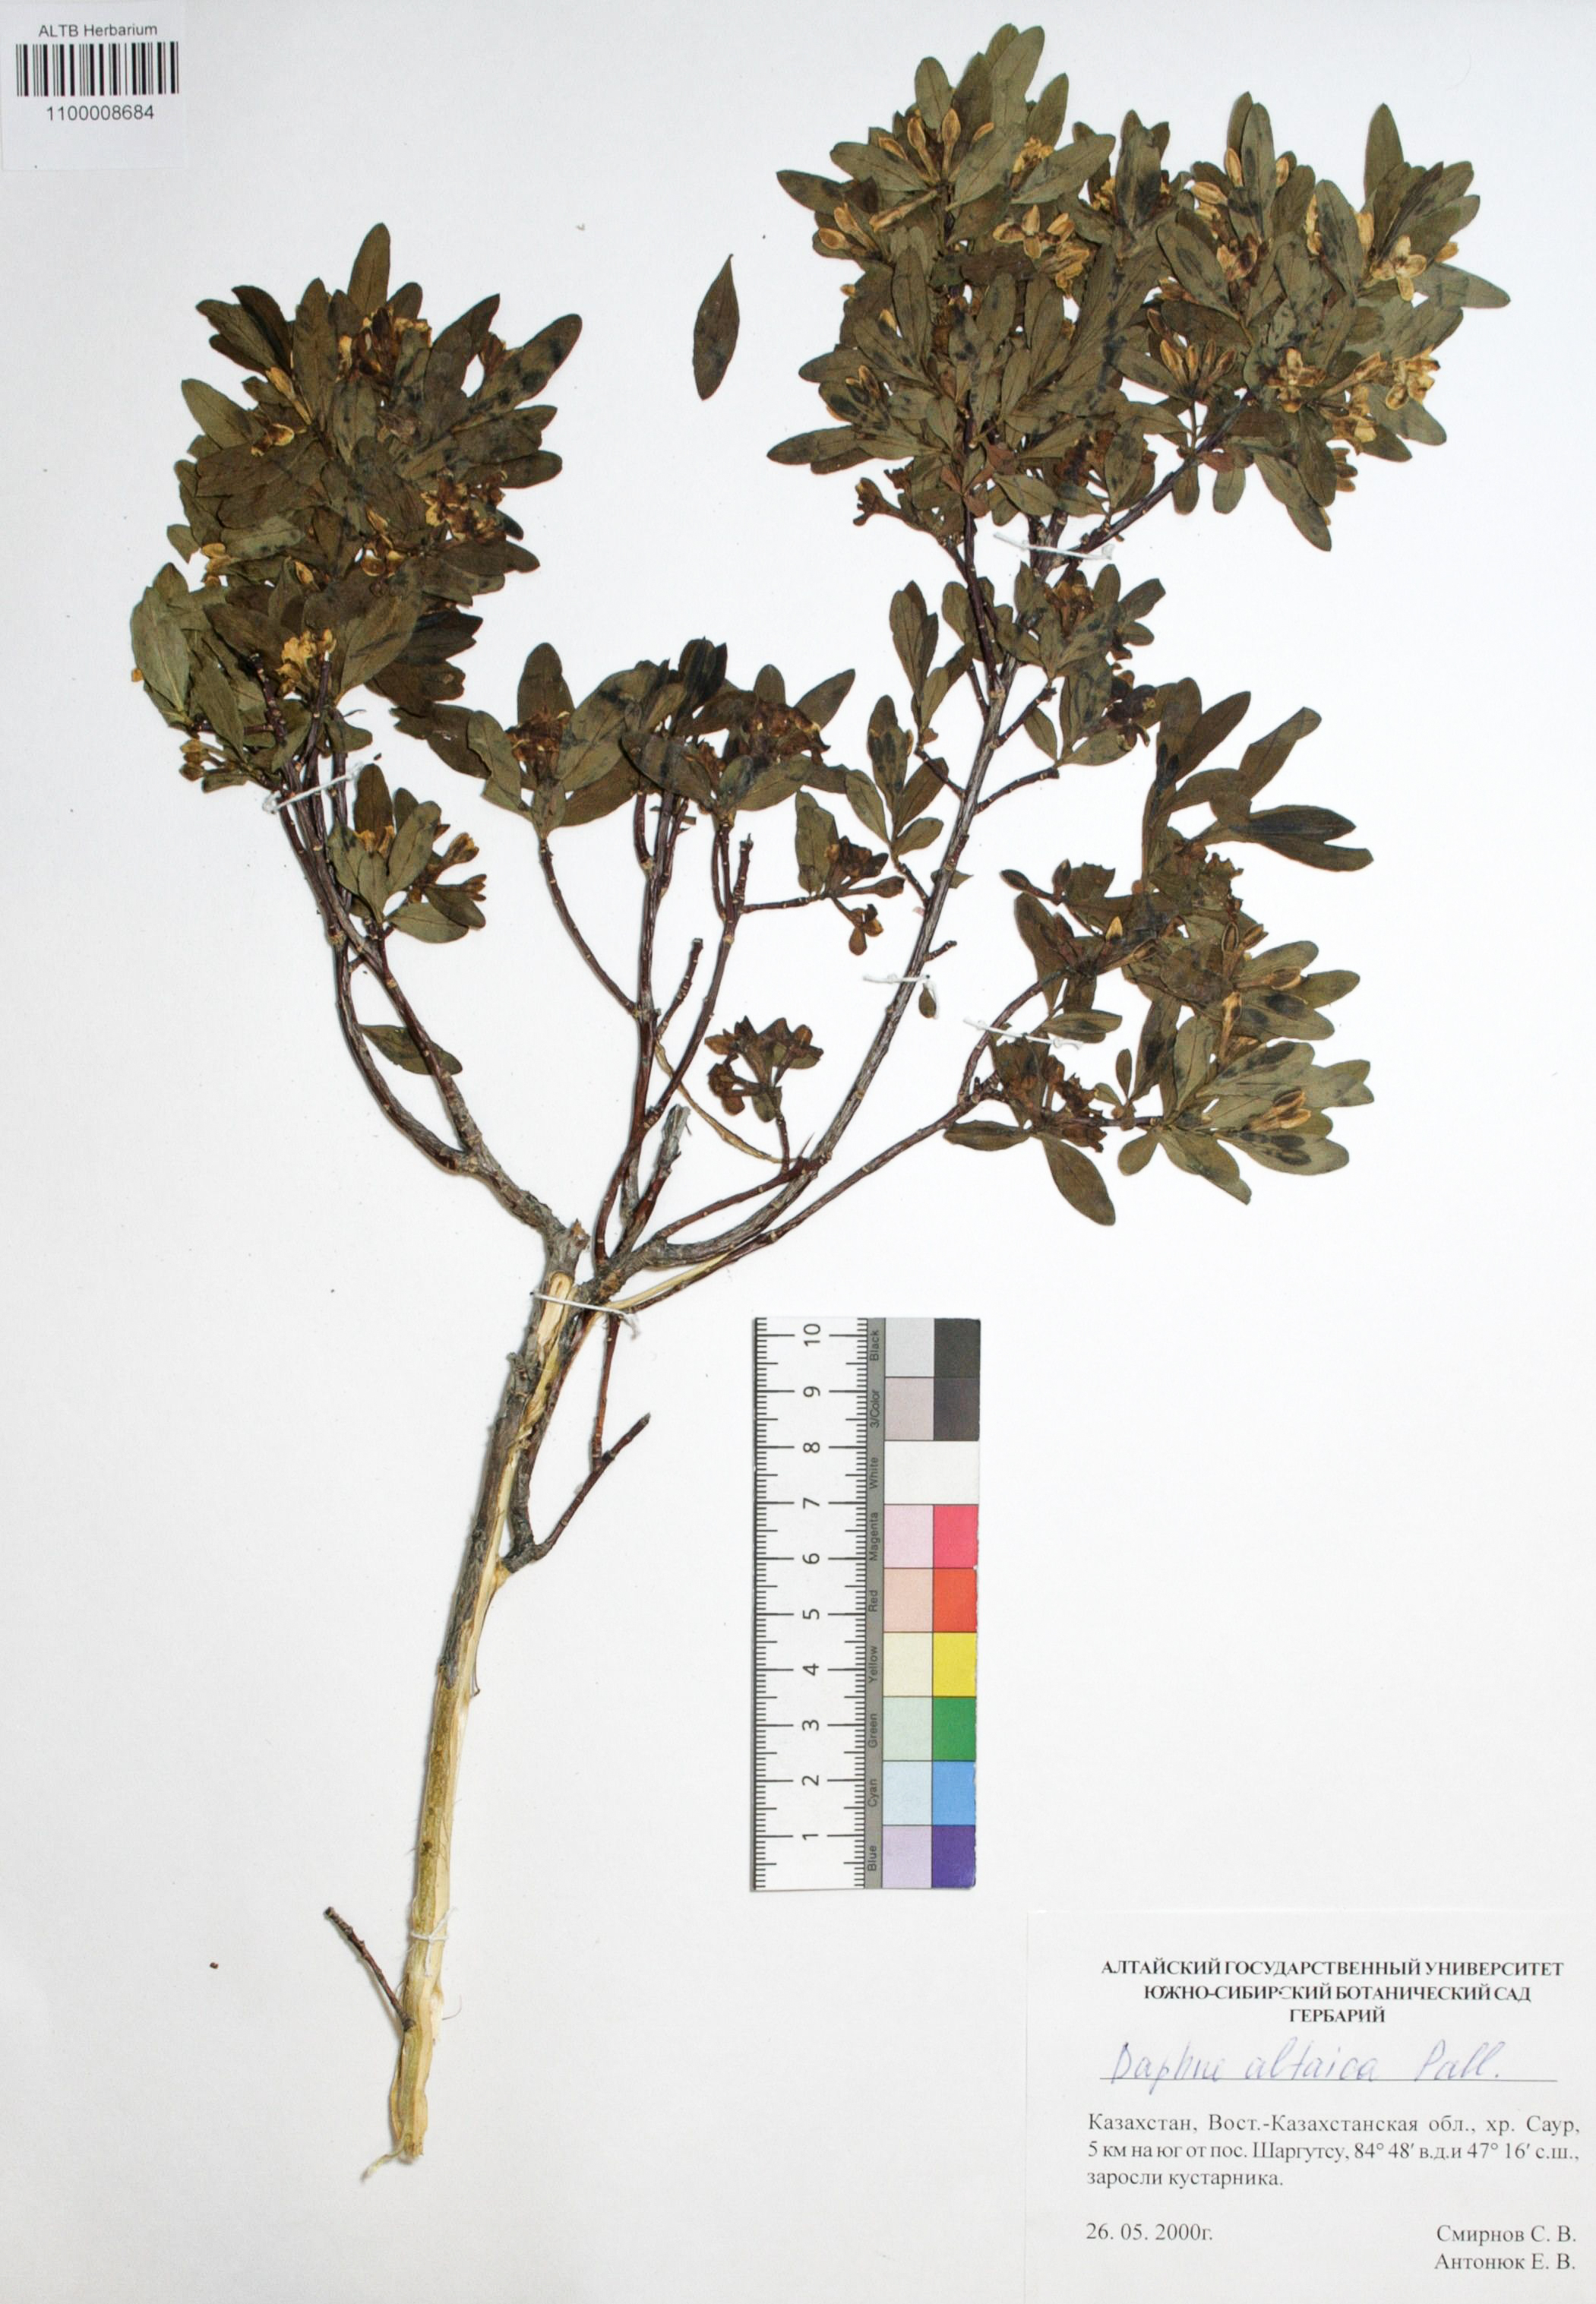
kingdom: Plantae
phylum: Tracheophyta
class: Magnoliopsida
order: Malvales
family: Thymelaeaceae
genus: Daphne
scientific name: Daphne altaica
